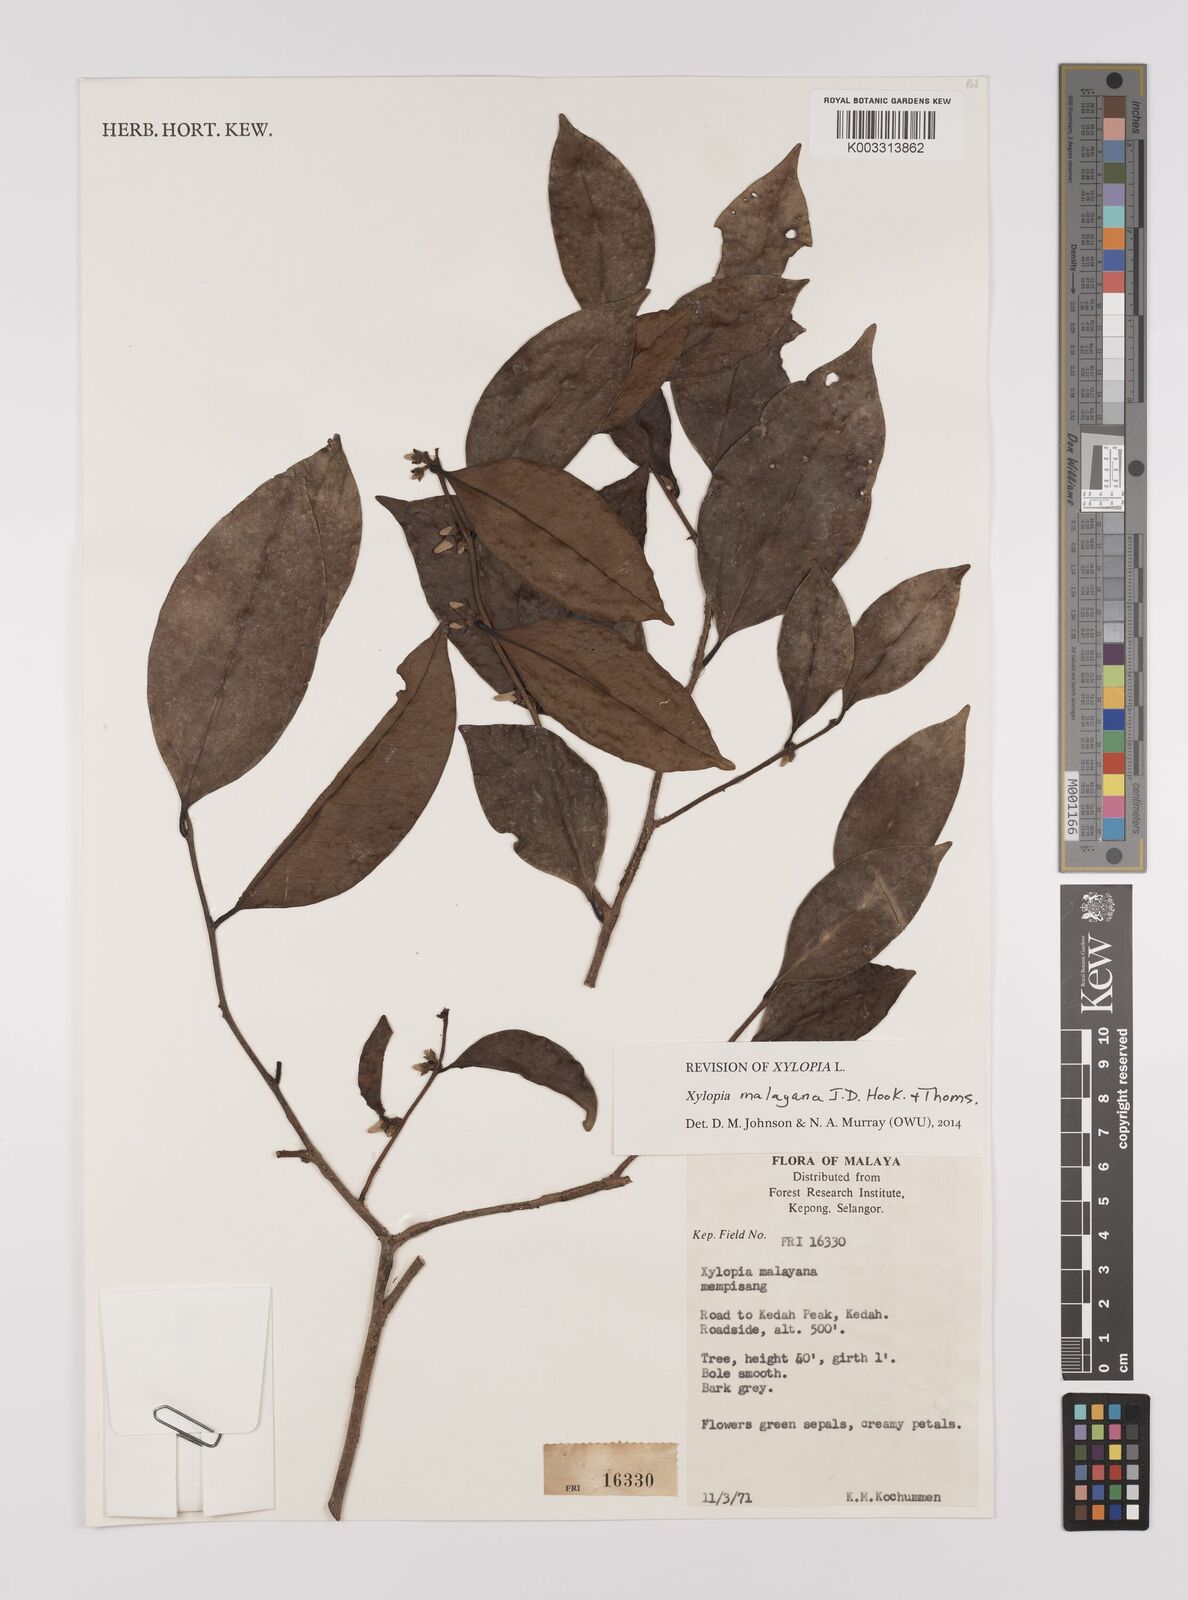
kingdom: Plantae
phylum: Tracheophyta
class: Magnoliopsida
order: Magnoliales
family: Annonaceae
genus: Xylopia
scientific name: Xylopia malayana
